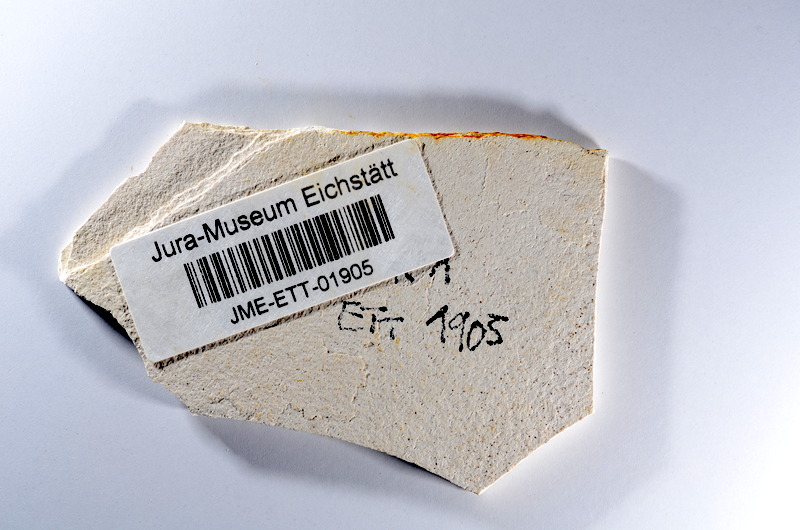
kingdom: Animalia
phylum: Chordata
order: Salmoniformes
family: Orthogonikleithridae
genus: Orthogonikleithrus
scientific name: Orthogonikleithrus hoelli
